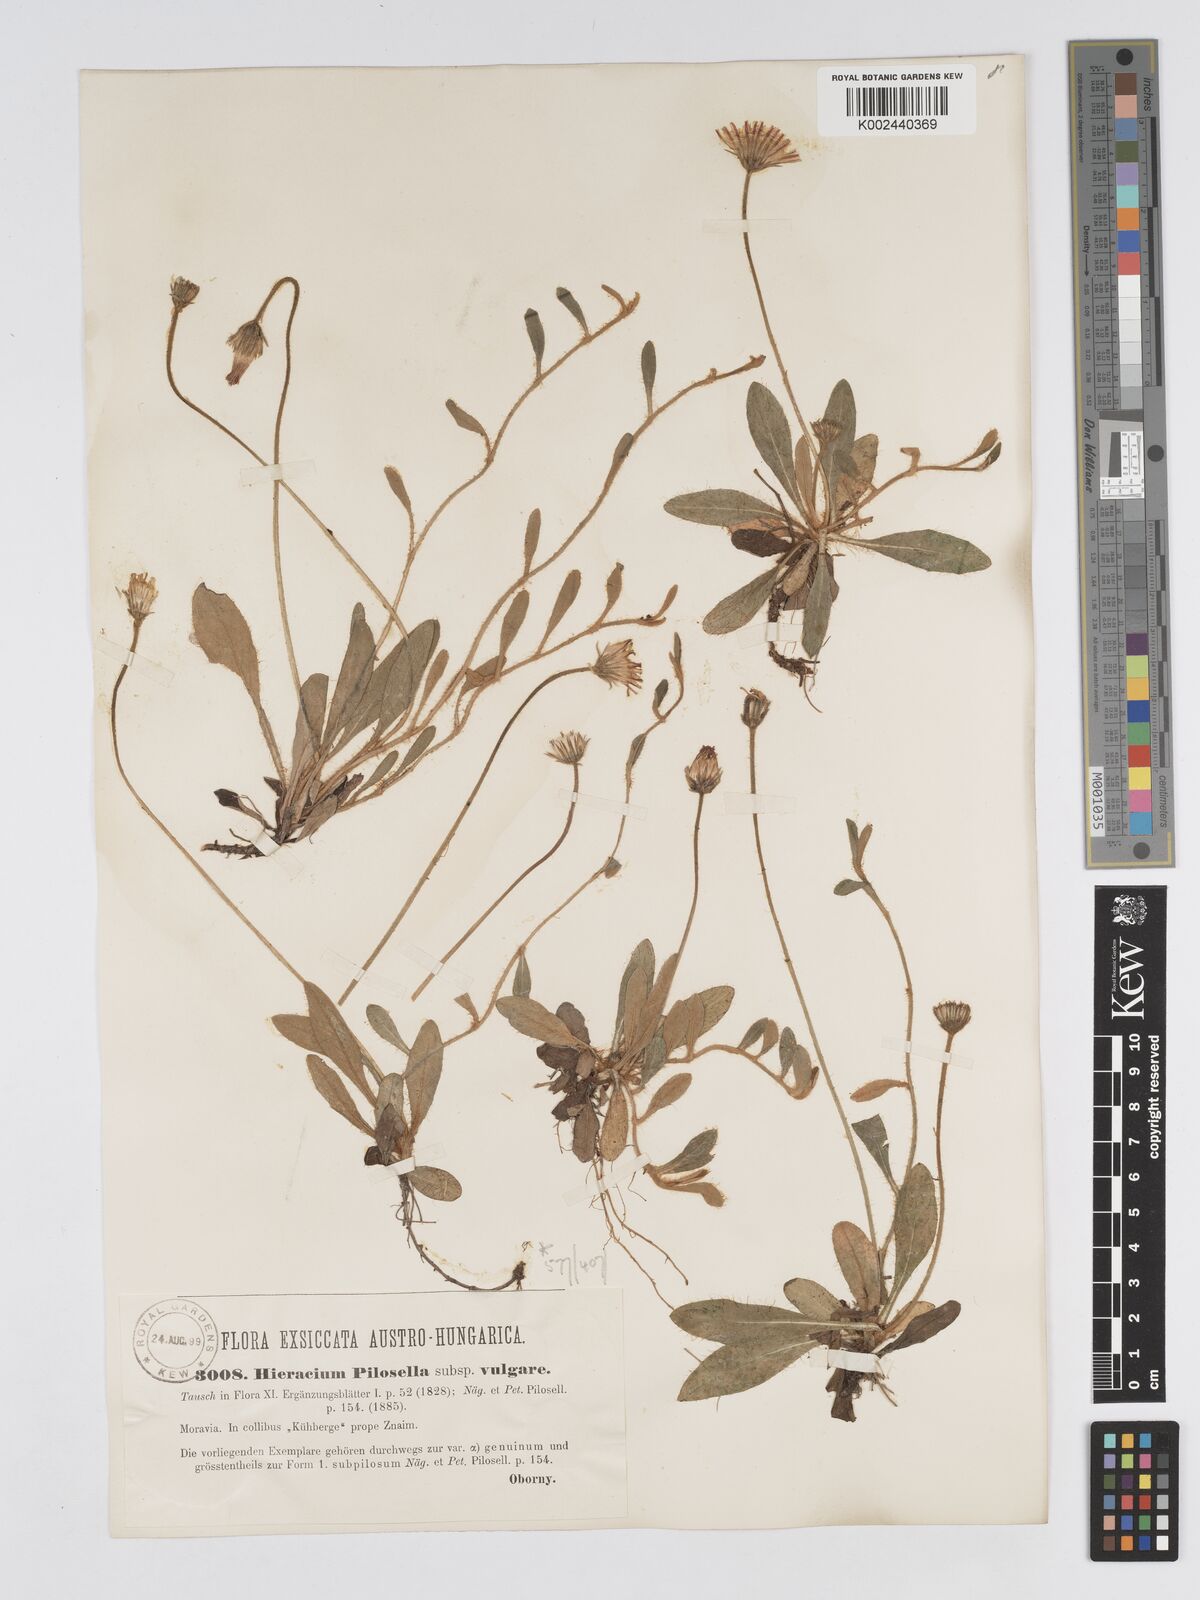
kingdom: Plantae
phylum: Tracheophyta
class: Magnoliopsida
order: Asterales
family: Asteraceae
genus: Pilosella
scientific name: Pilosella officinarum
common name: Mouse-ear hawkweed
